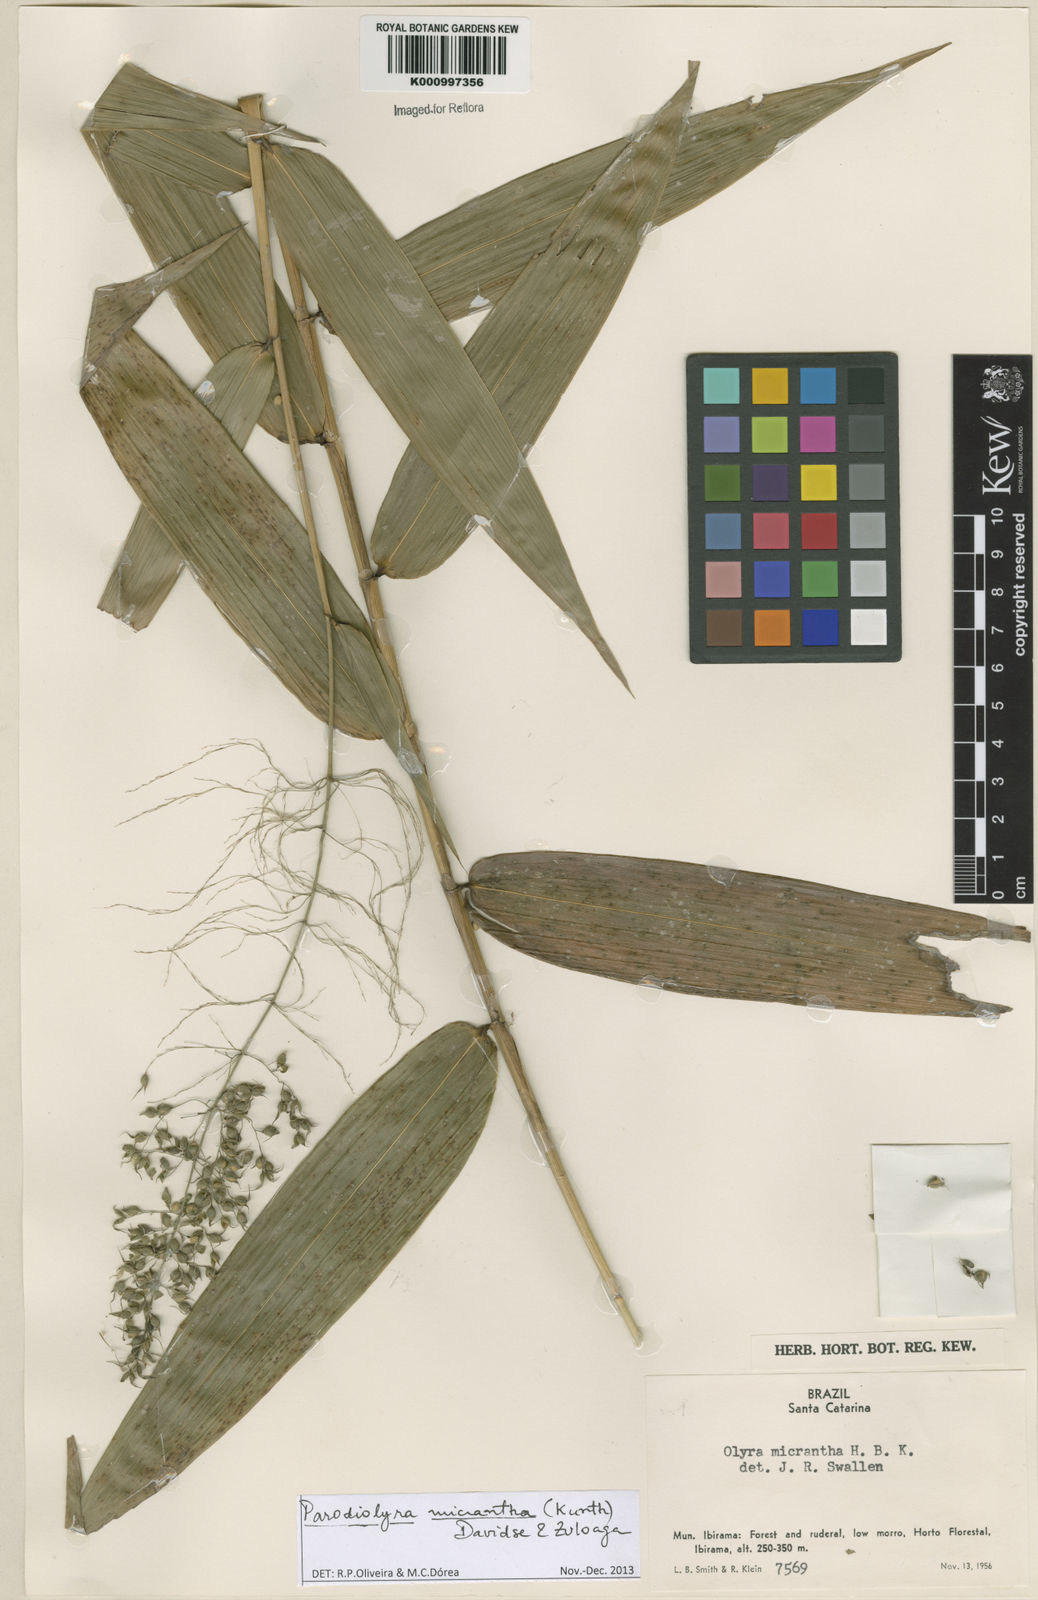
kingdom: Plantae
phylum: Tracheophyta
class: Liliopsida
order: Poales
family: Poaceae
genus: Taquara
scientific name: Taquara micrantha
